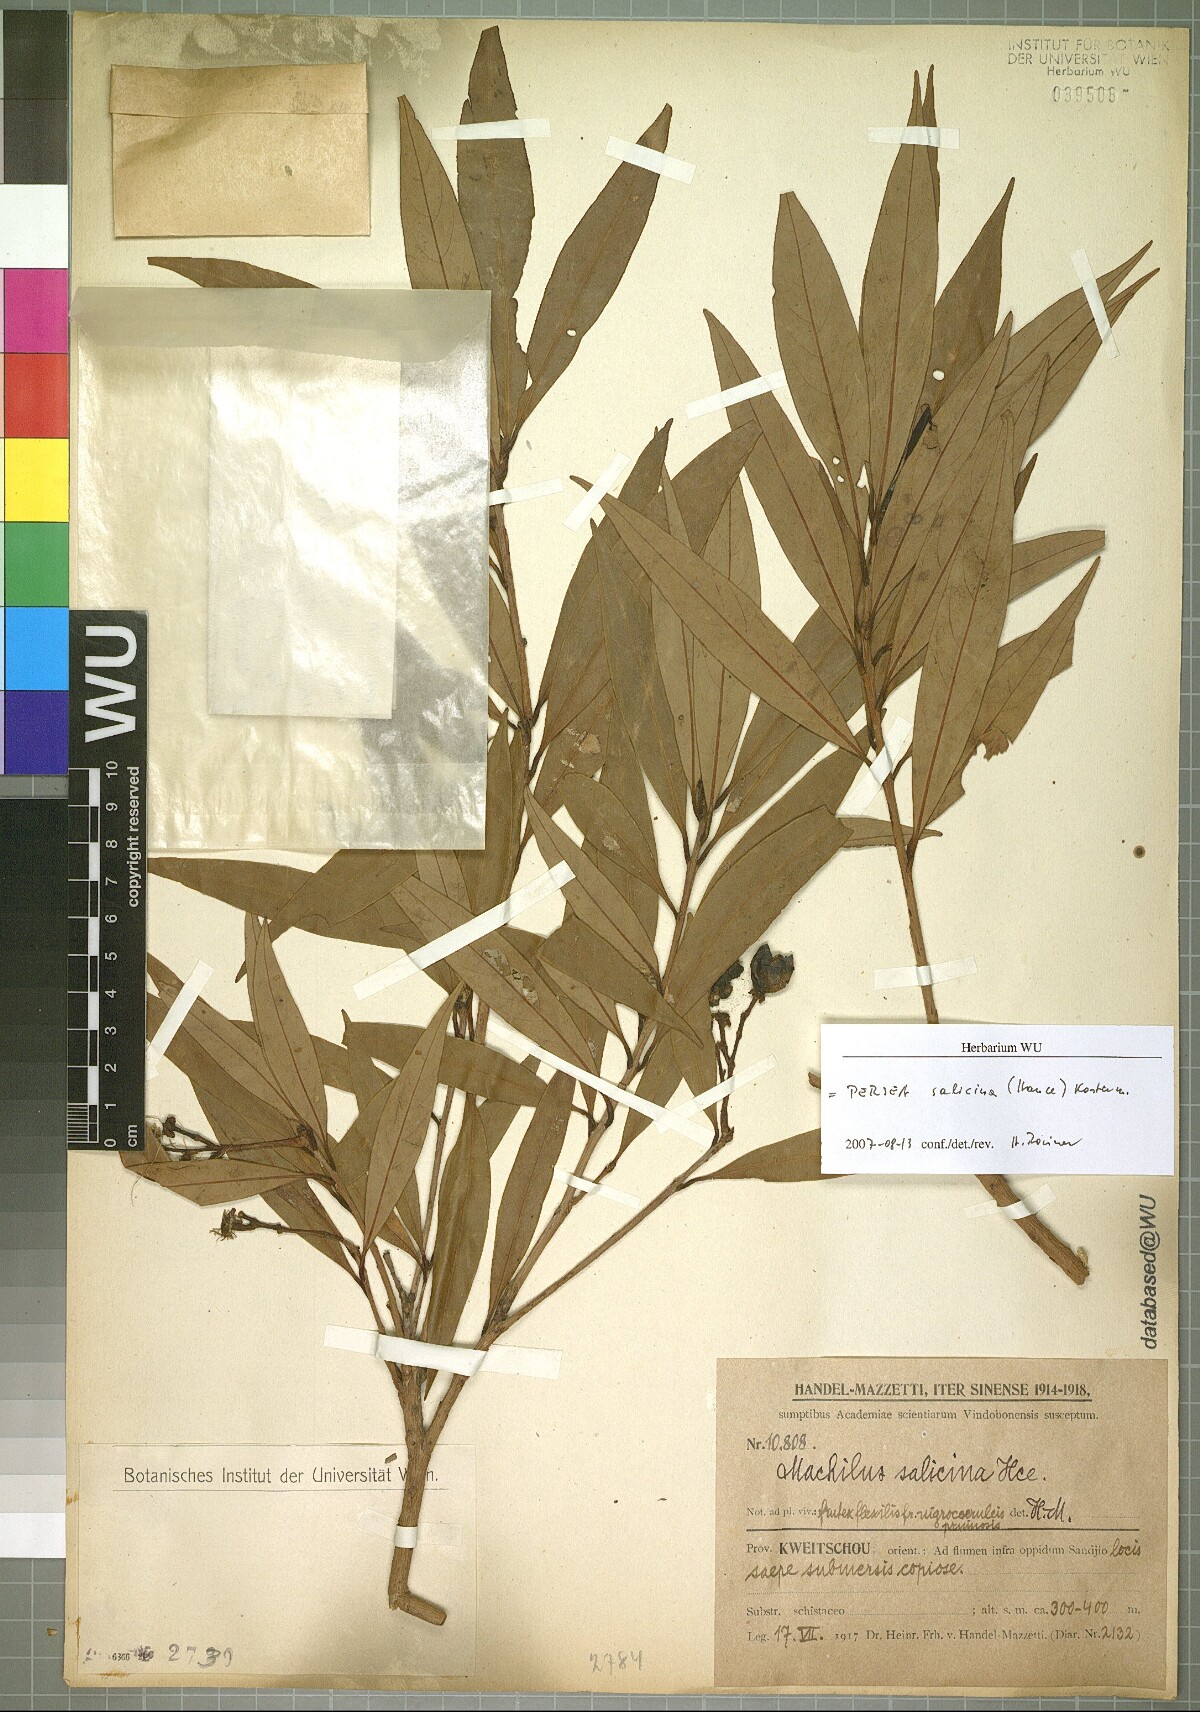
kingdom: Plantae
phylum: Tracheophyta
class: Magnoliopsida
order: Laurales
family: Lauraceae
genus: Machilus
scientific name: Machilus salicina
